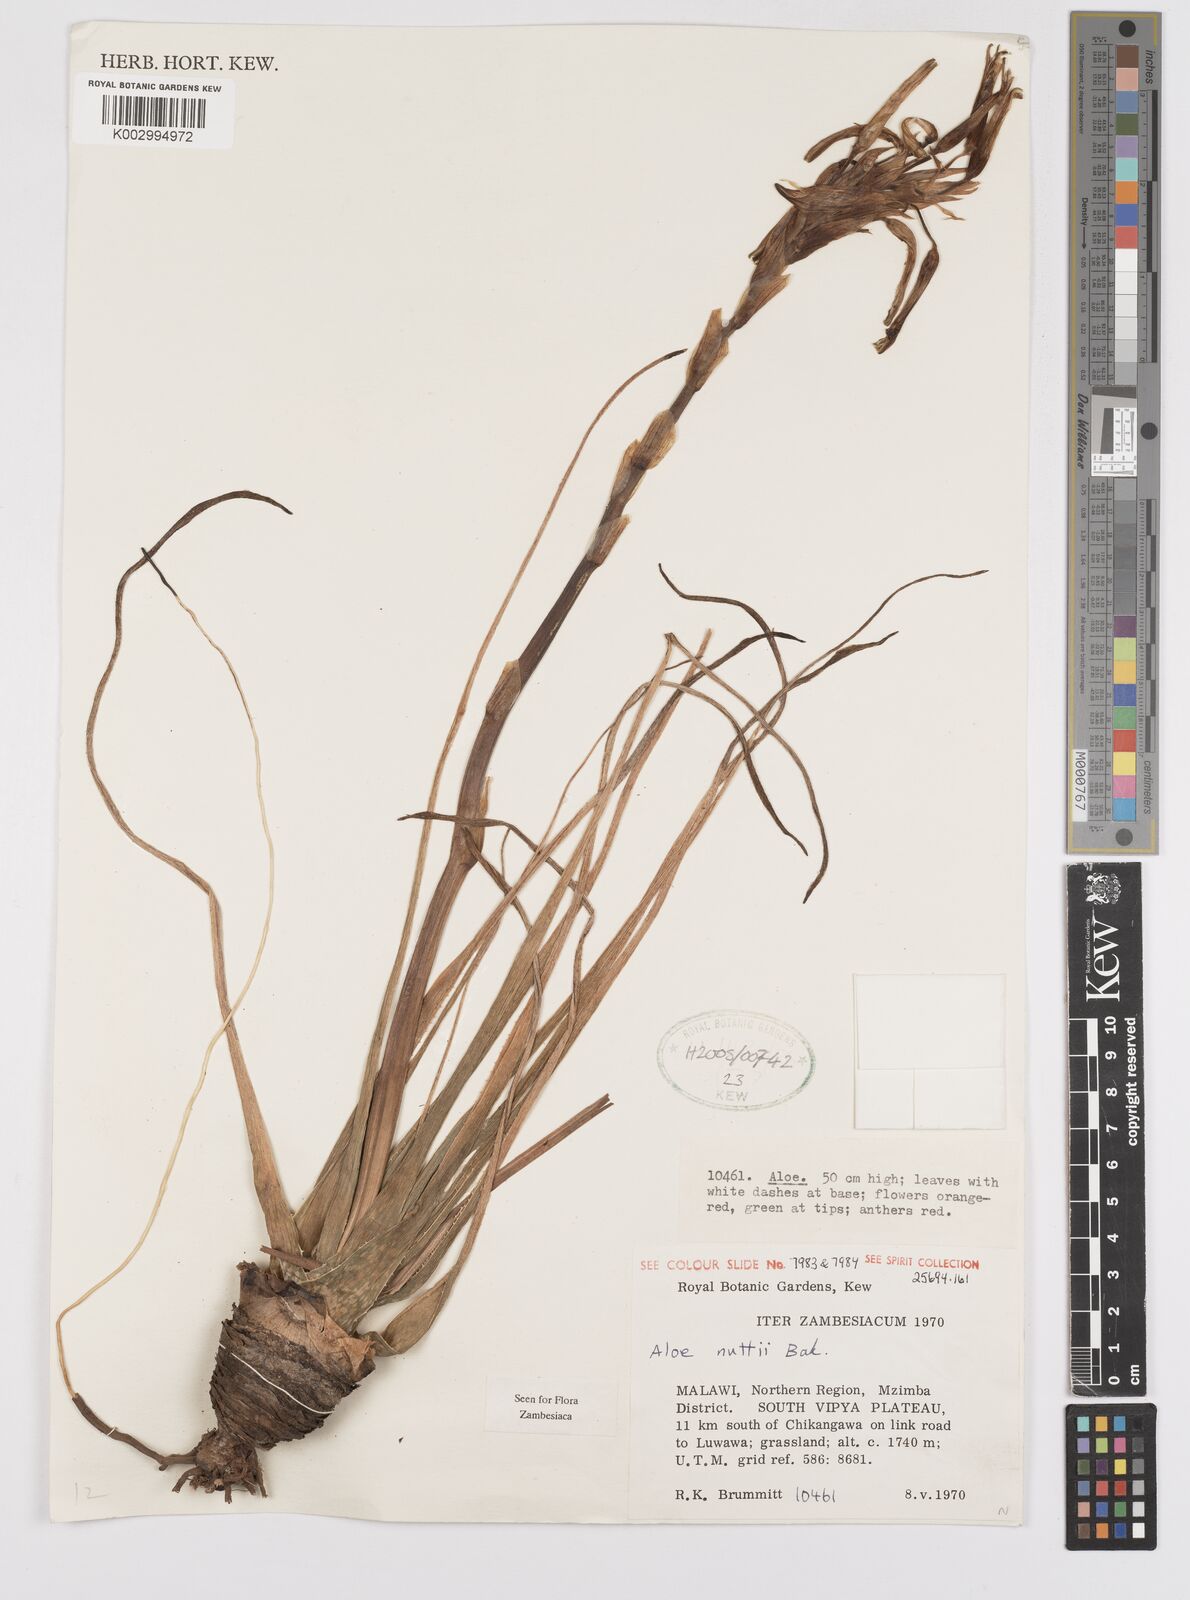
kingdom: Plantae
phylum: Tracheophyta
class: Liliopsida
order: Asparagales
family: Asphodelaceae
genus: Aloe
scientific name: Aloe nuttii
